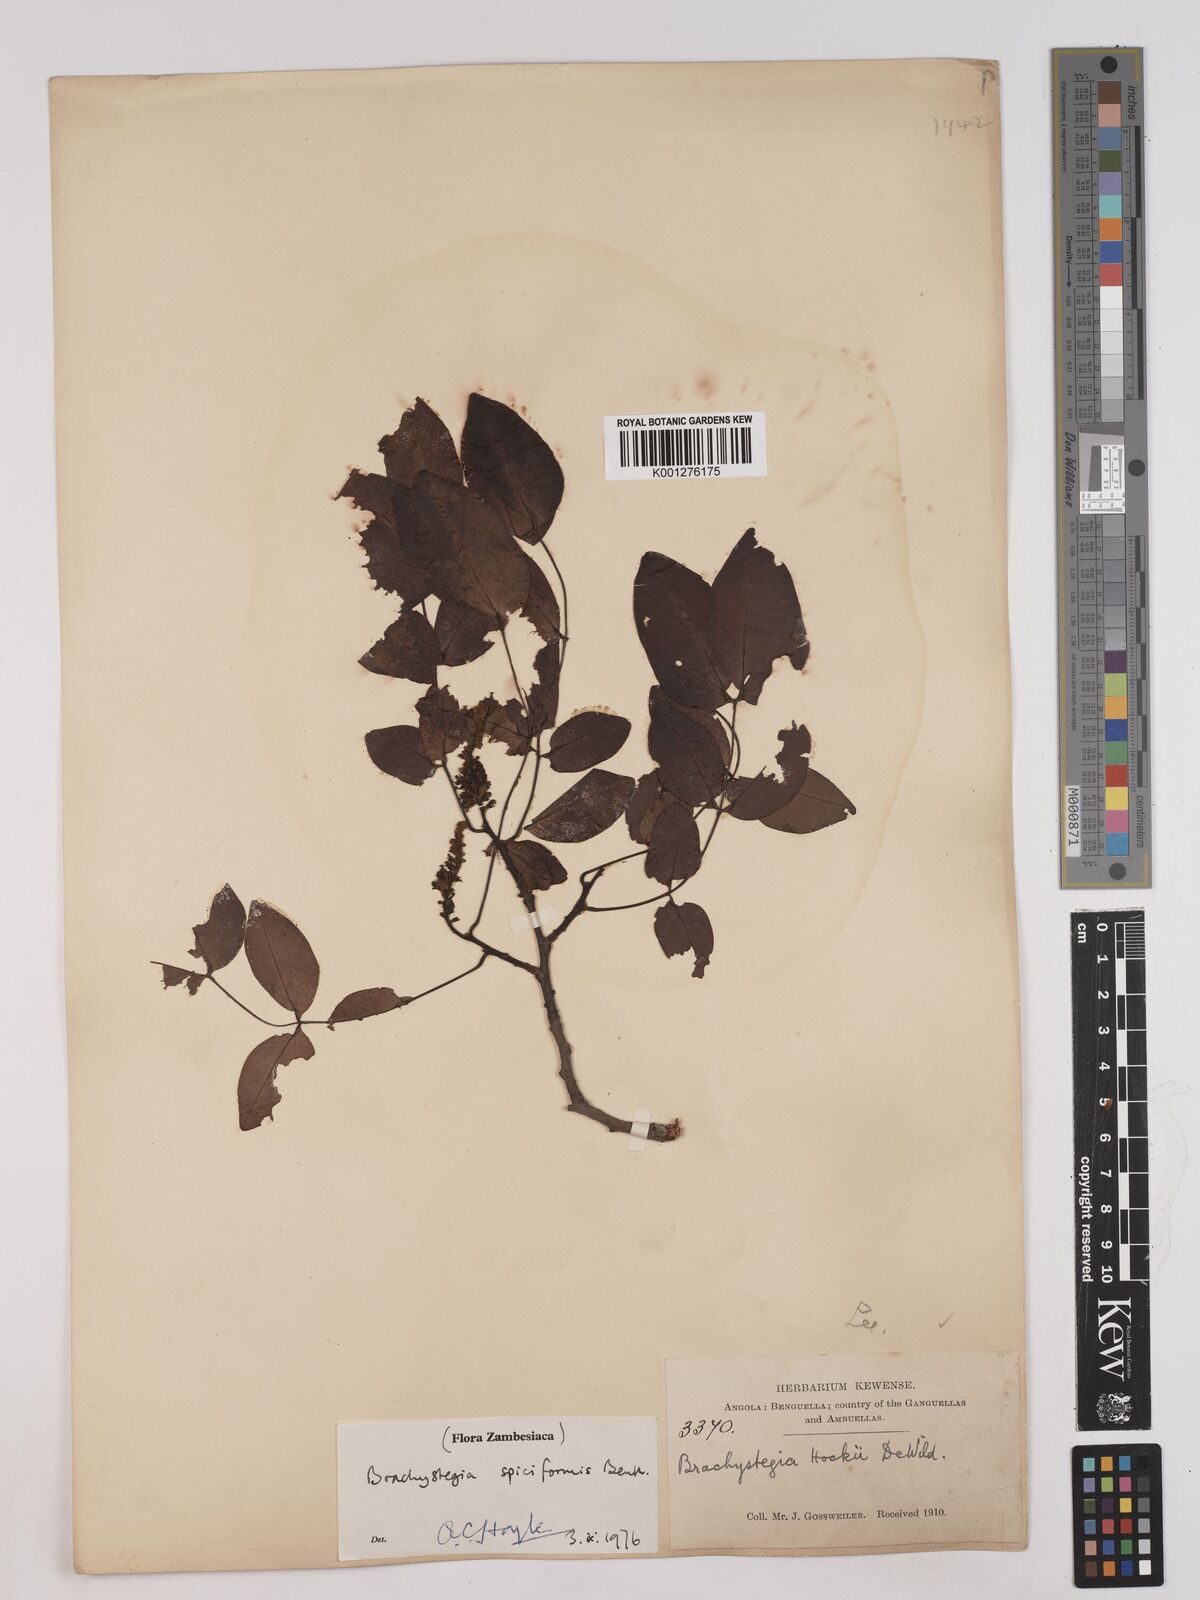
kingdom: Plantae
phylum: Tracheophyta
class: Magnoliopsida
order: Fabales
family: Fabaceae
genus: Brachystegia
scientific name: Brachystegia
